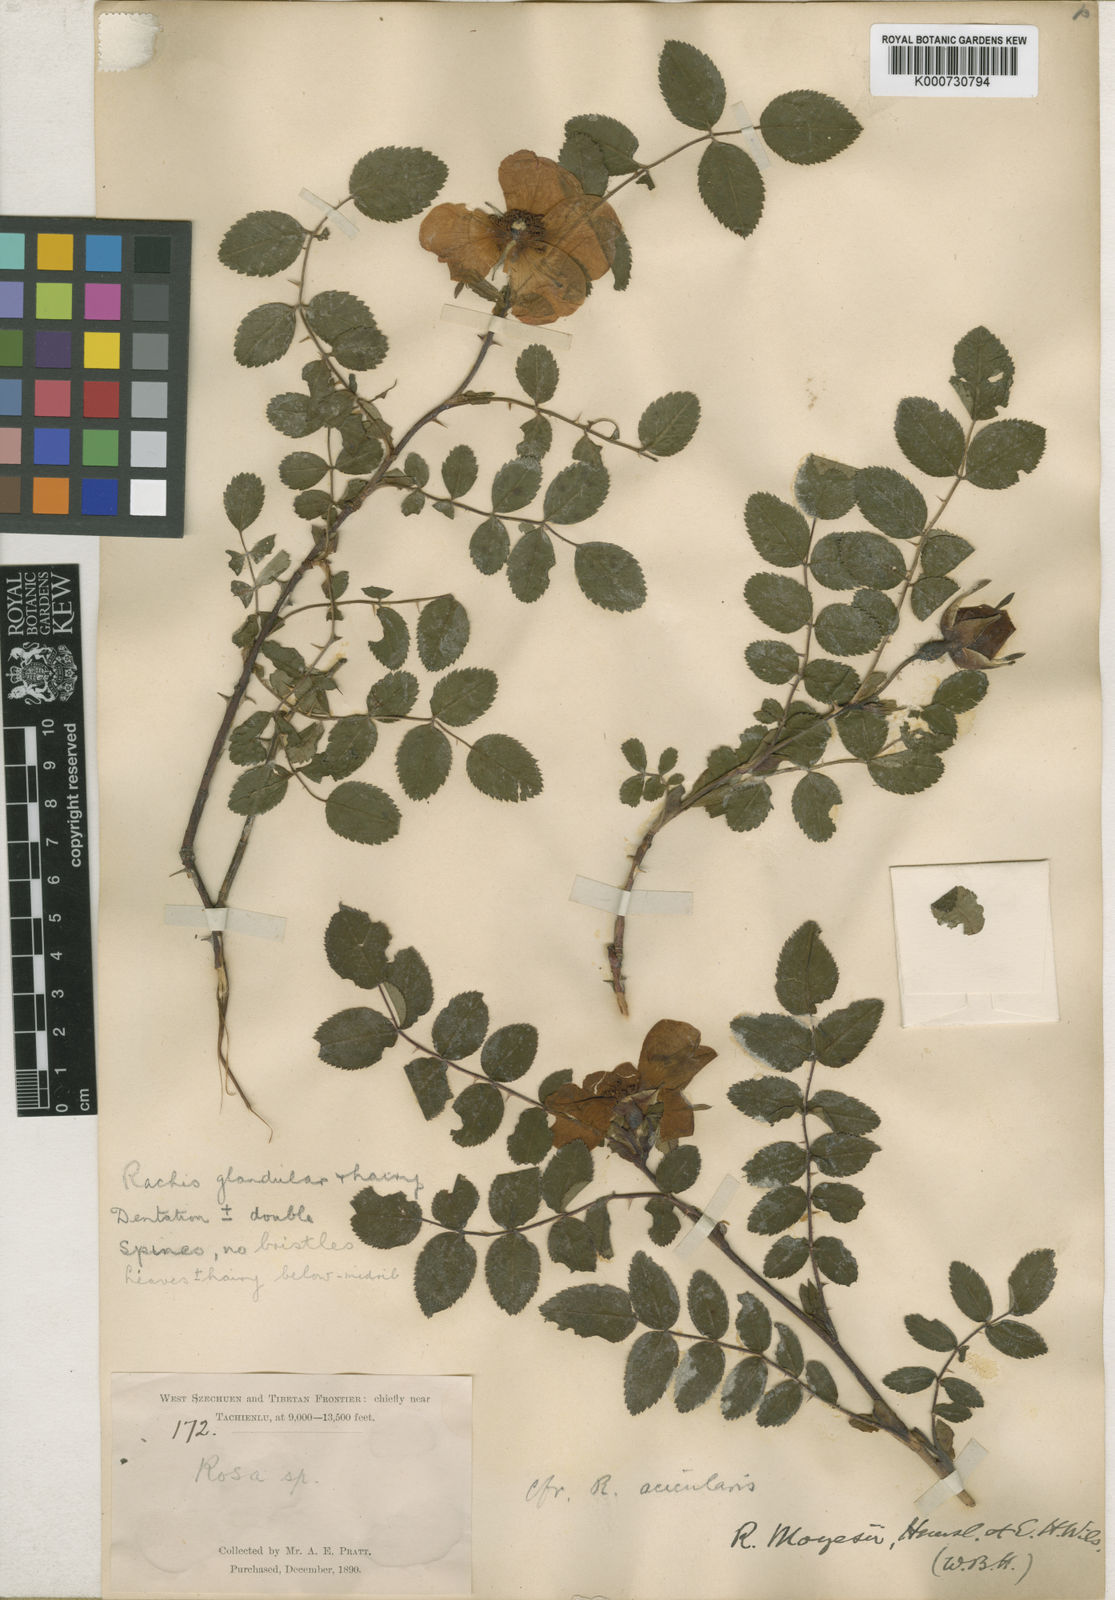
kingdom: Plantae
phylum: Tracheophyta
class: Magnoliopsida
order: Rosales
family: Rosaceae
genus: Rosa
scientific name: Rosa moyesii
